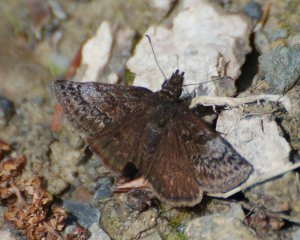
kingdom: Animalia
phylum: Arthropoda
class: Insecta
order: Lepidoptera
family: Hesperiidae
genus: Erynnis
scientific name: Erynnis icelus
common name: Dreamy Duskywing
